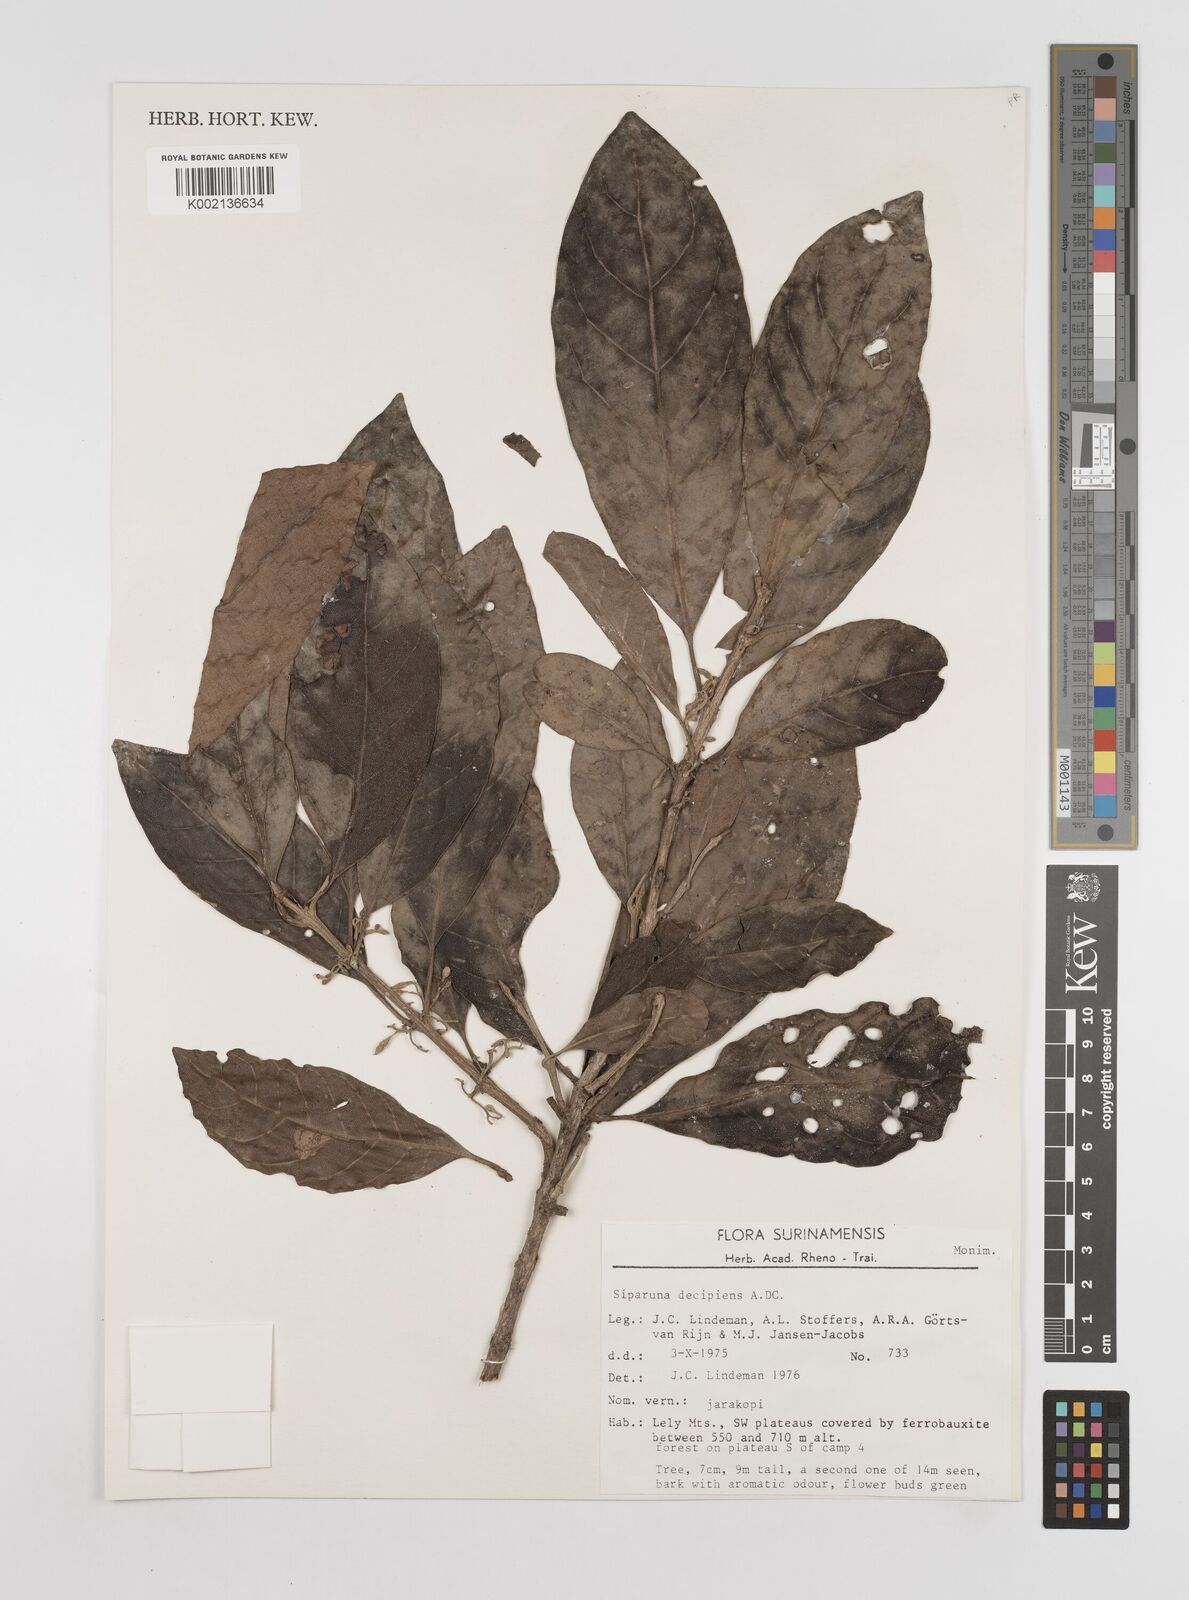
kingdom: Plantae
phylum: Tracheophyta
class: Magnoliopsida
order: Laurales
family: Siparunaceae
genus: Siparuna
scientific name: Siparuna decipiens
